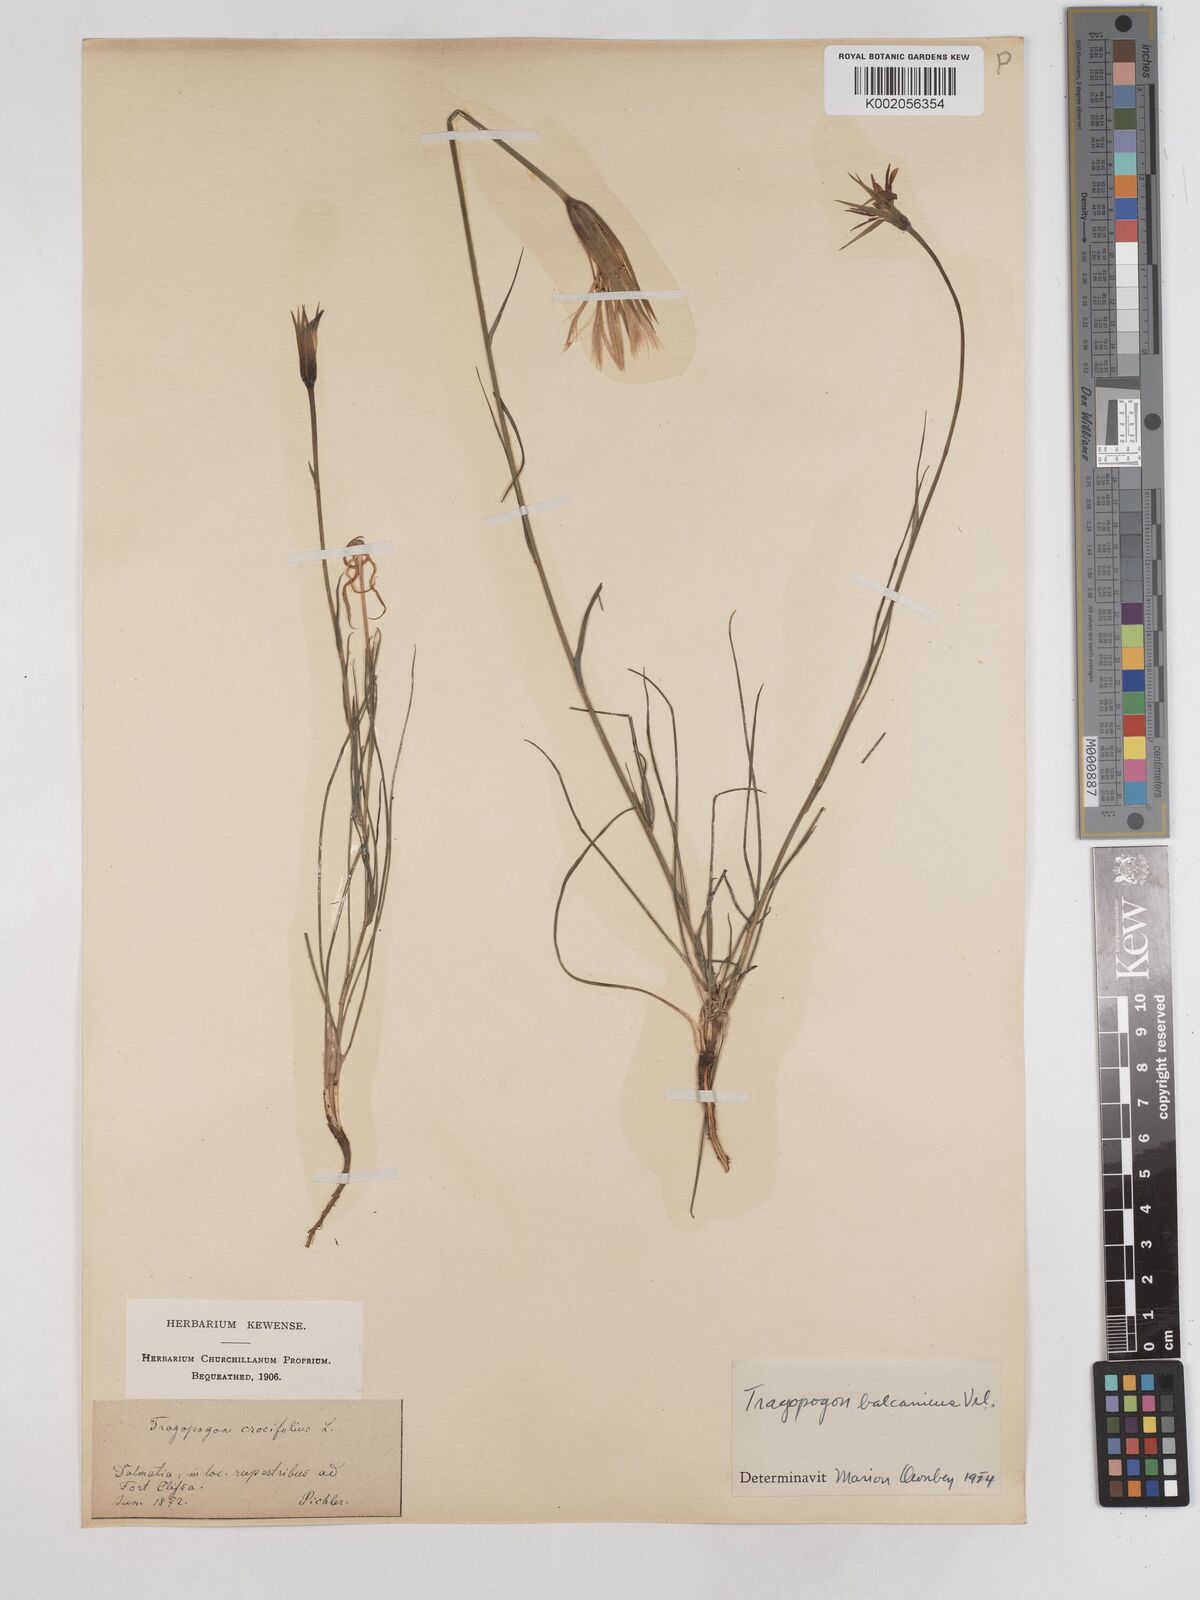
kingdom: Plantae
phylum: Tracheophyta
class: Magnoliopsida
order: Asterales
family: Asteraceae
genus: Tragopogon
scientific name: Tragopogon balcanicus
